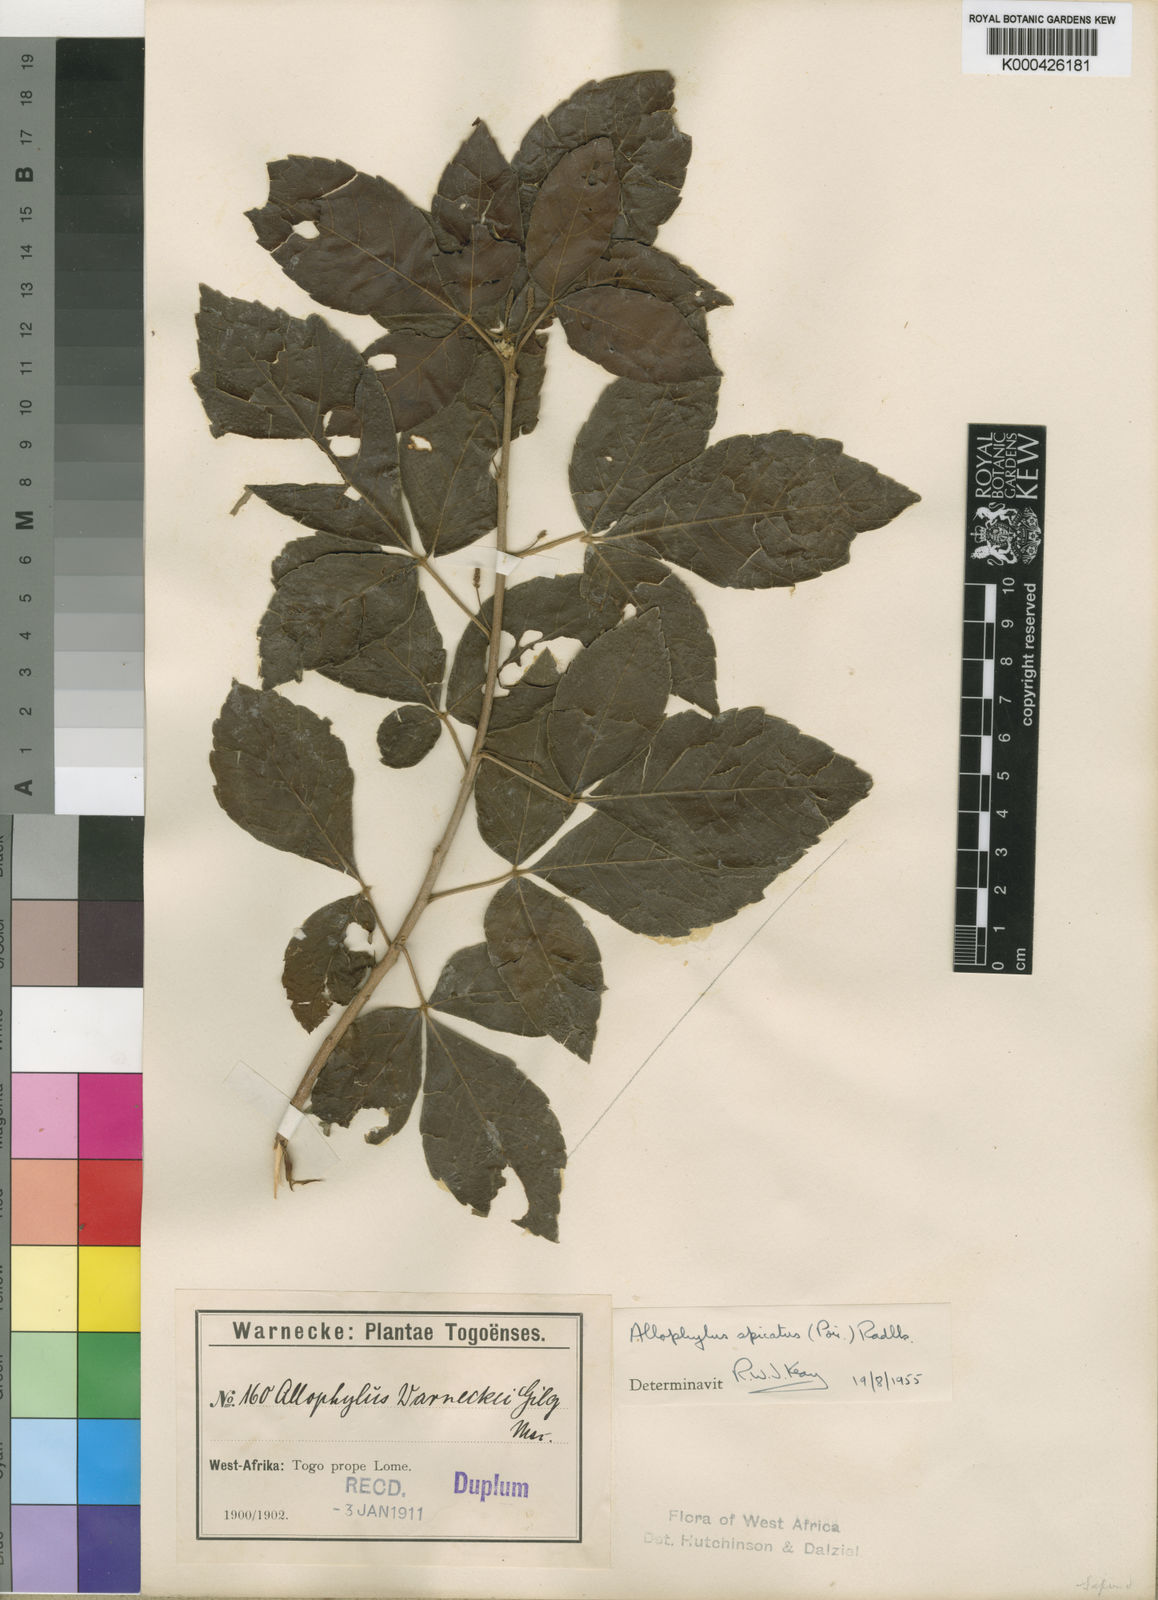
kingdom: Plantae
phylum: Tracheophyta
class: Magnoliopsida
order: Sapindales
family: Sapindaceae
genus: Allophylus
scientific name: Allophylus spicatus
